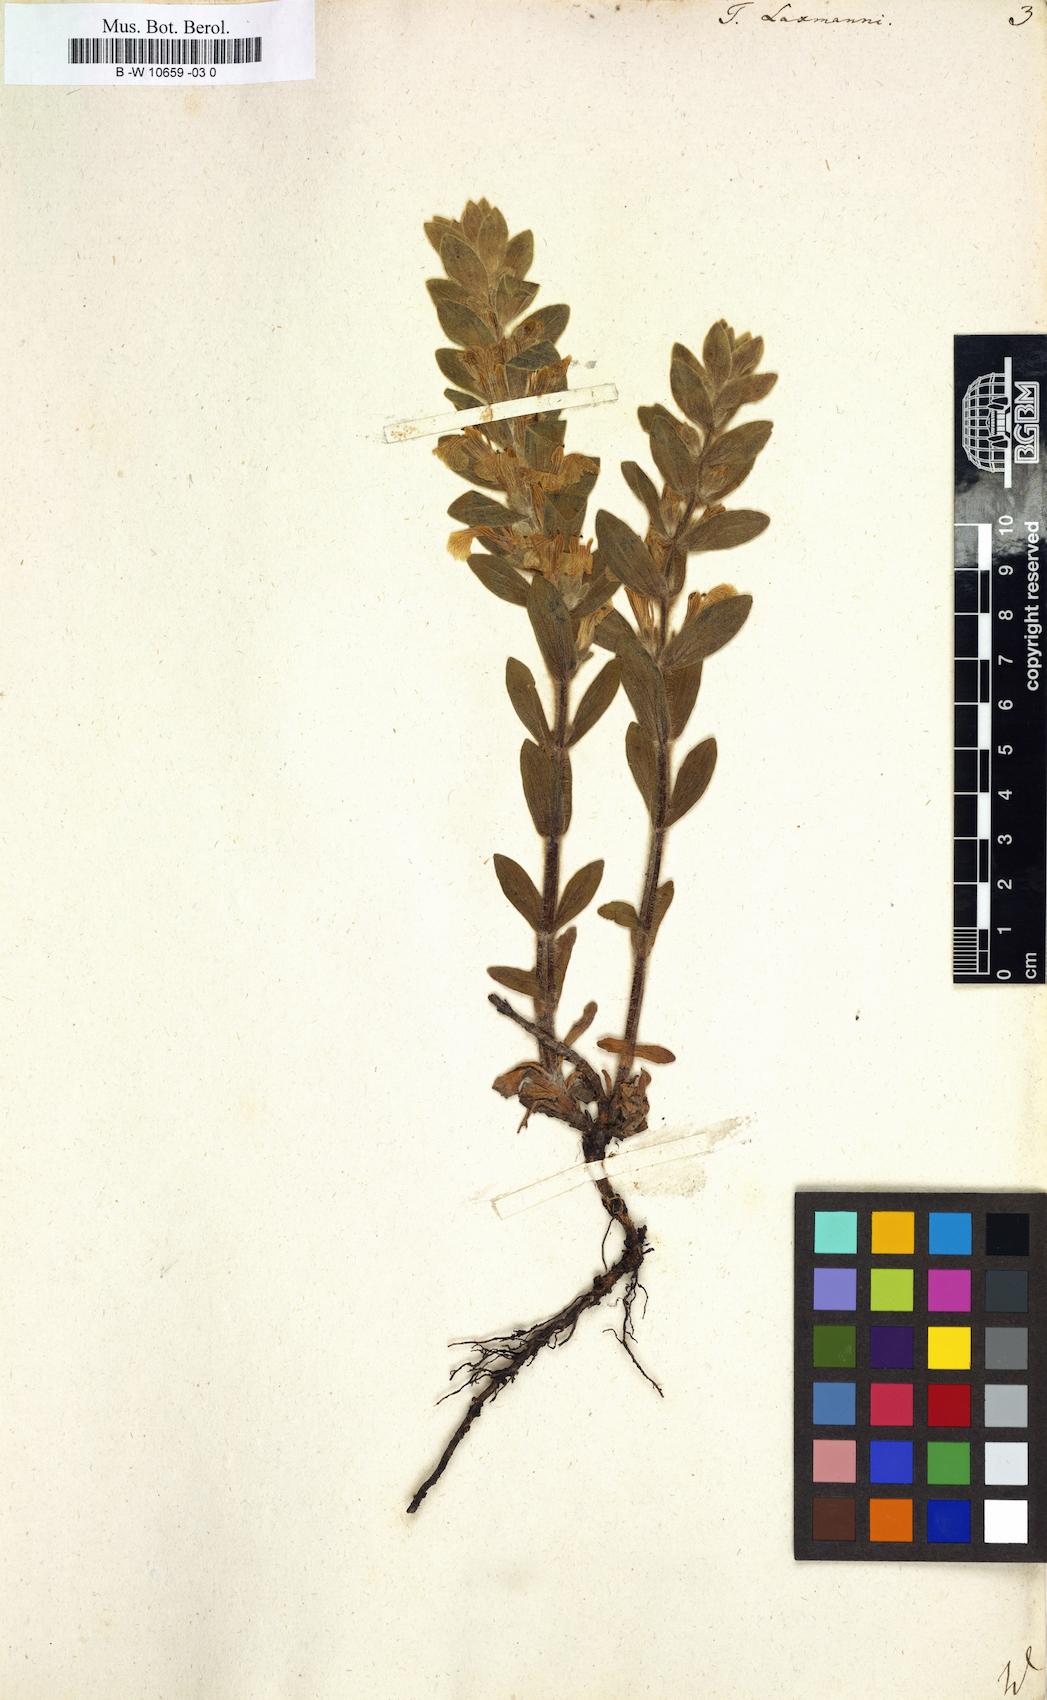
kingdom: Plantae
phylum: Tracheophyta
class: Magnoliopsida
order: Lamiales
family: Lamiaceae
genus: Ajuga
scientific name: Ajuga laxmannii
